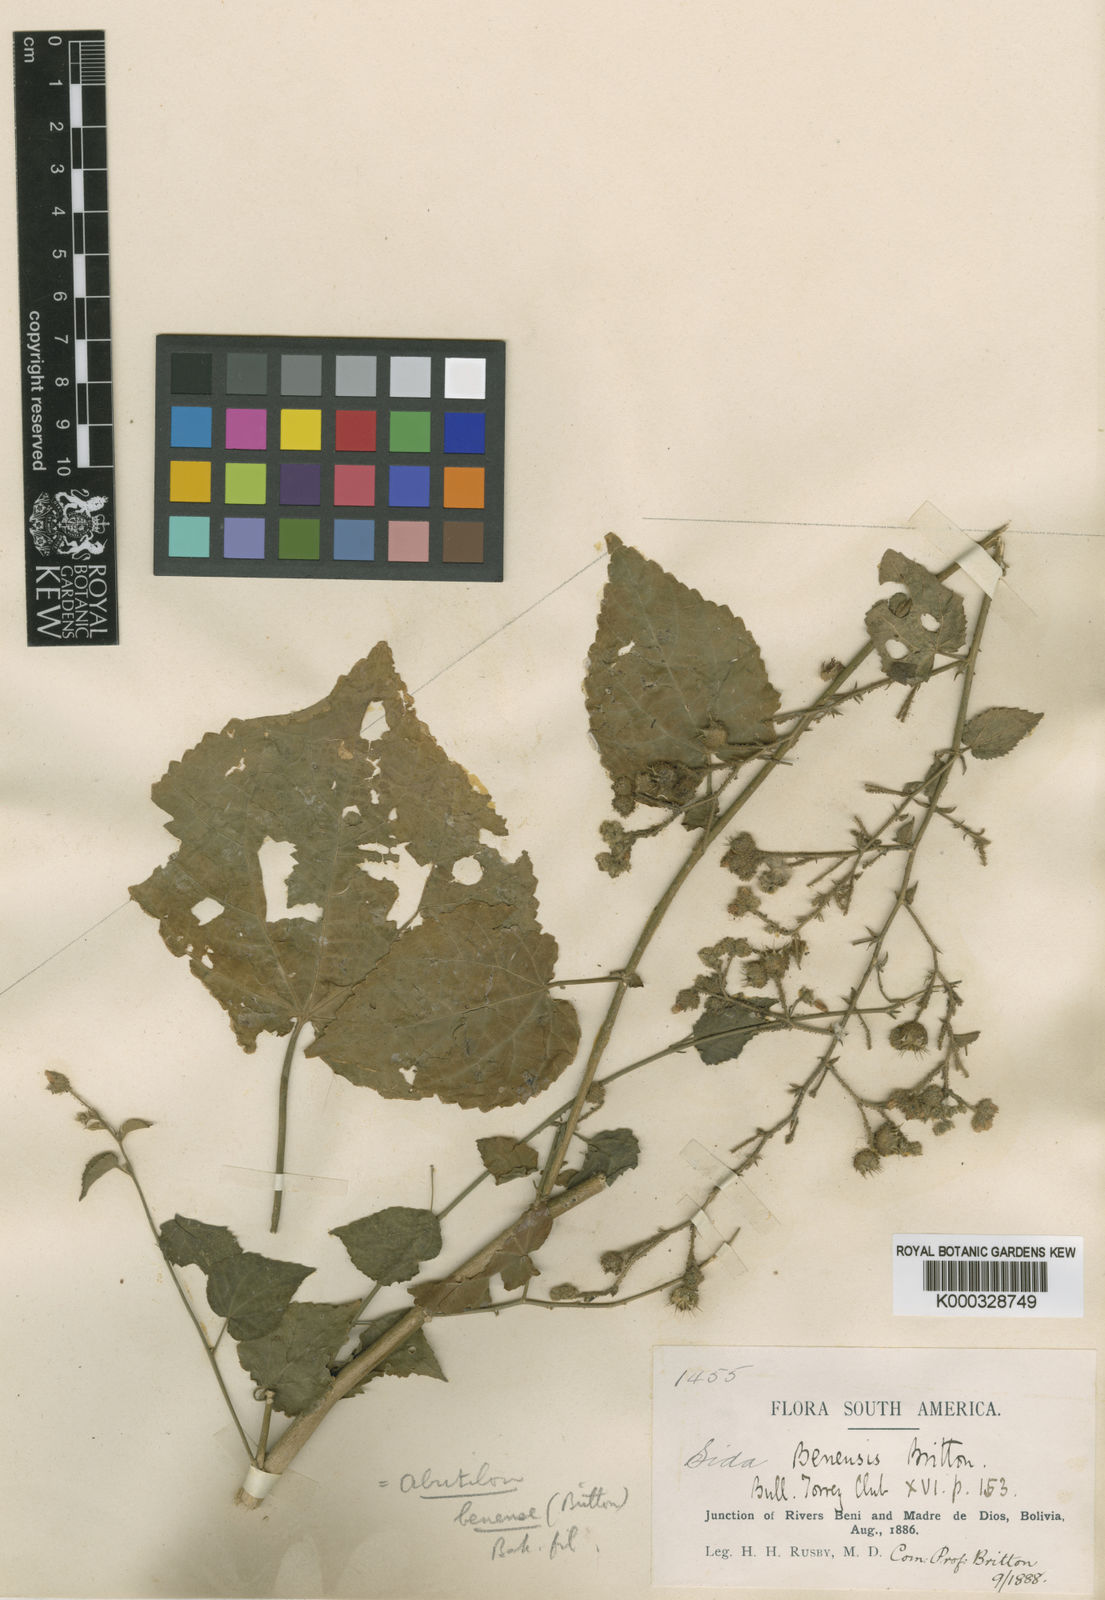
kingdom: Plantae
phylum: Tracheophyta
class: Magnoliopsida
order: Malvales
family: Malvaceae
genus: Pseudabutilon
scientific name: Pseudabutilon benense
